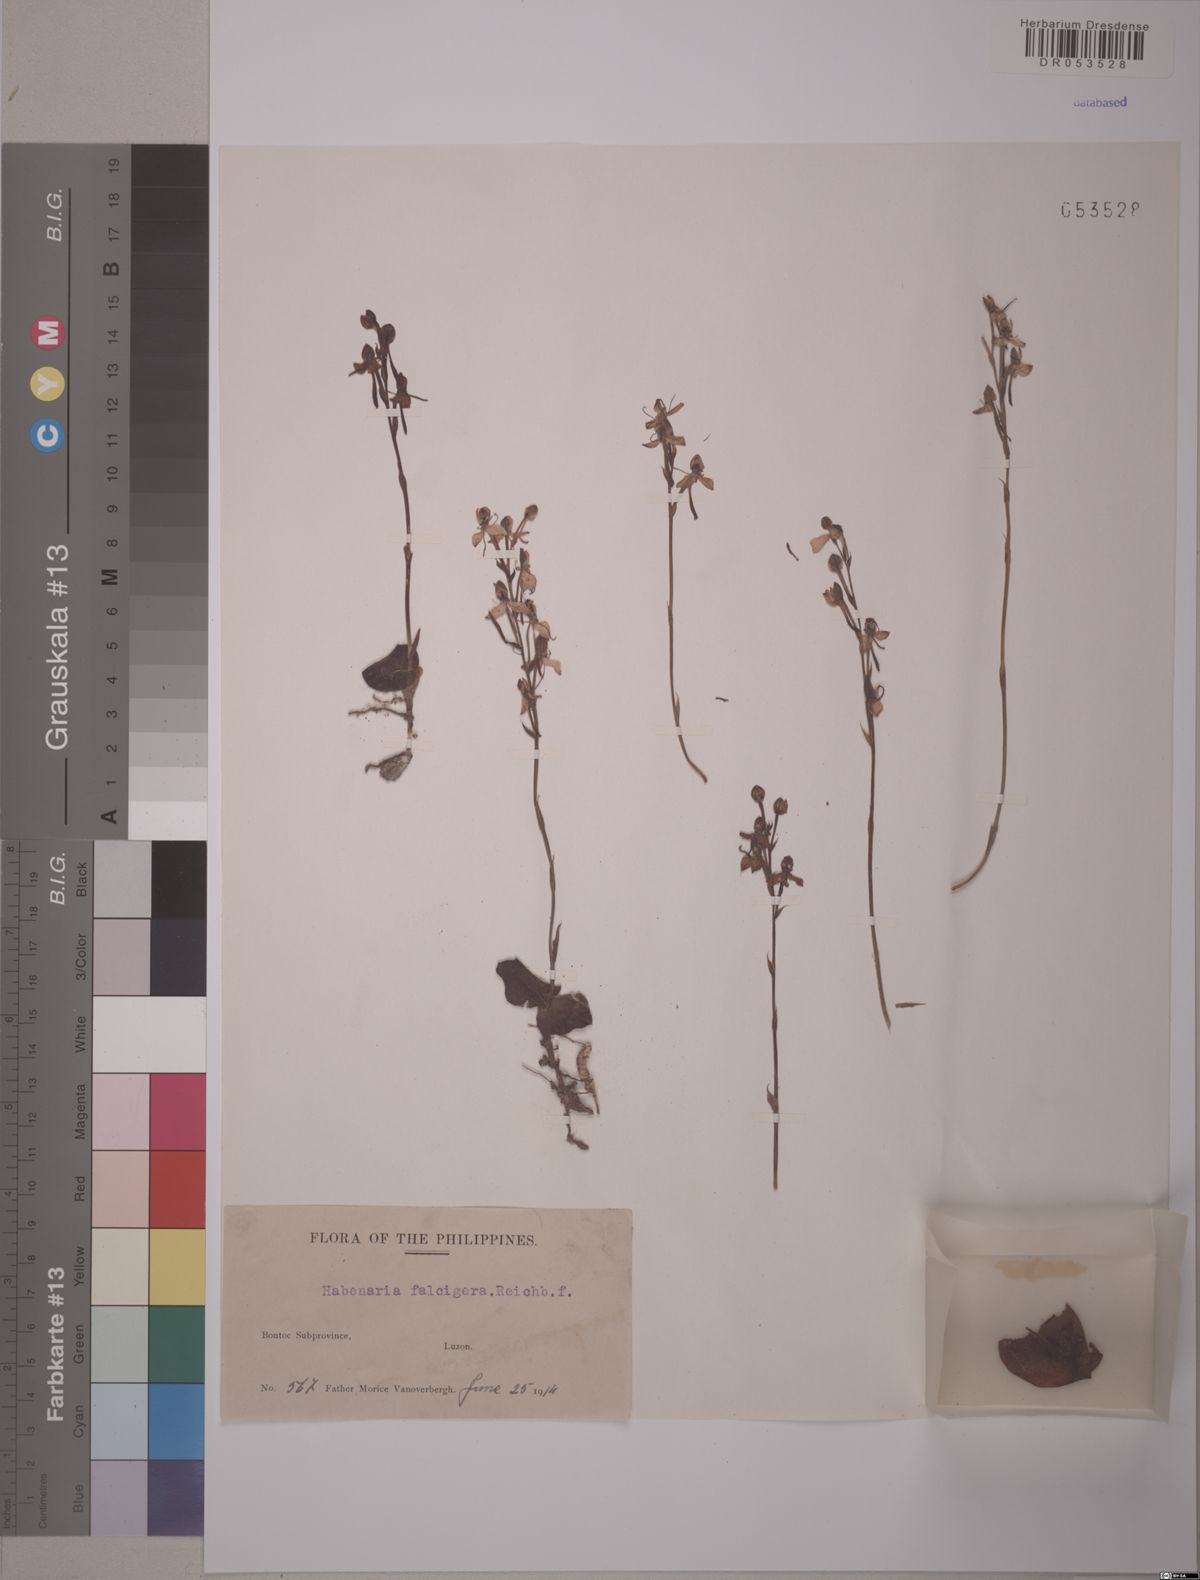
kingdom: Plantae
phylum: Tracheophyta
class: Liliopsida
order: Asparagales
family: Orchidaceae
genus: Habenaria
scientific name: Habenaria falcigera
